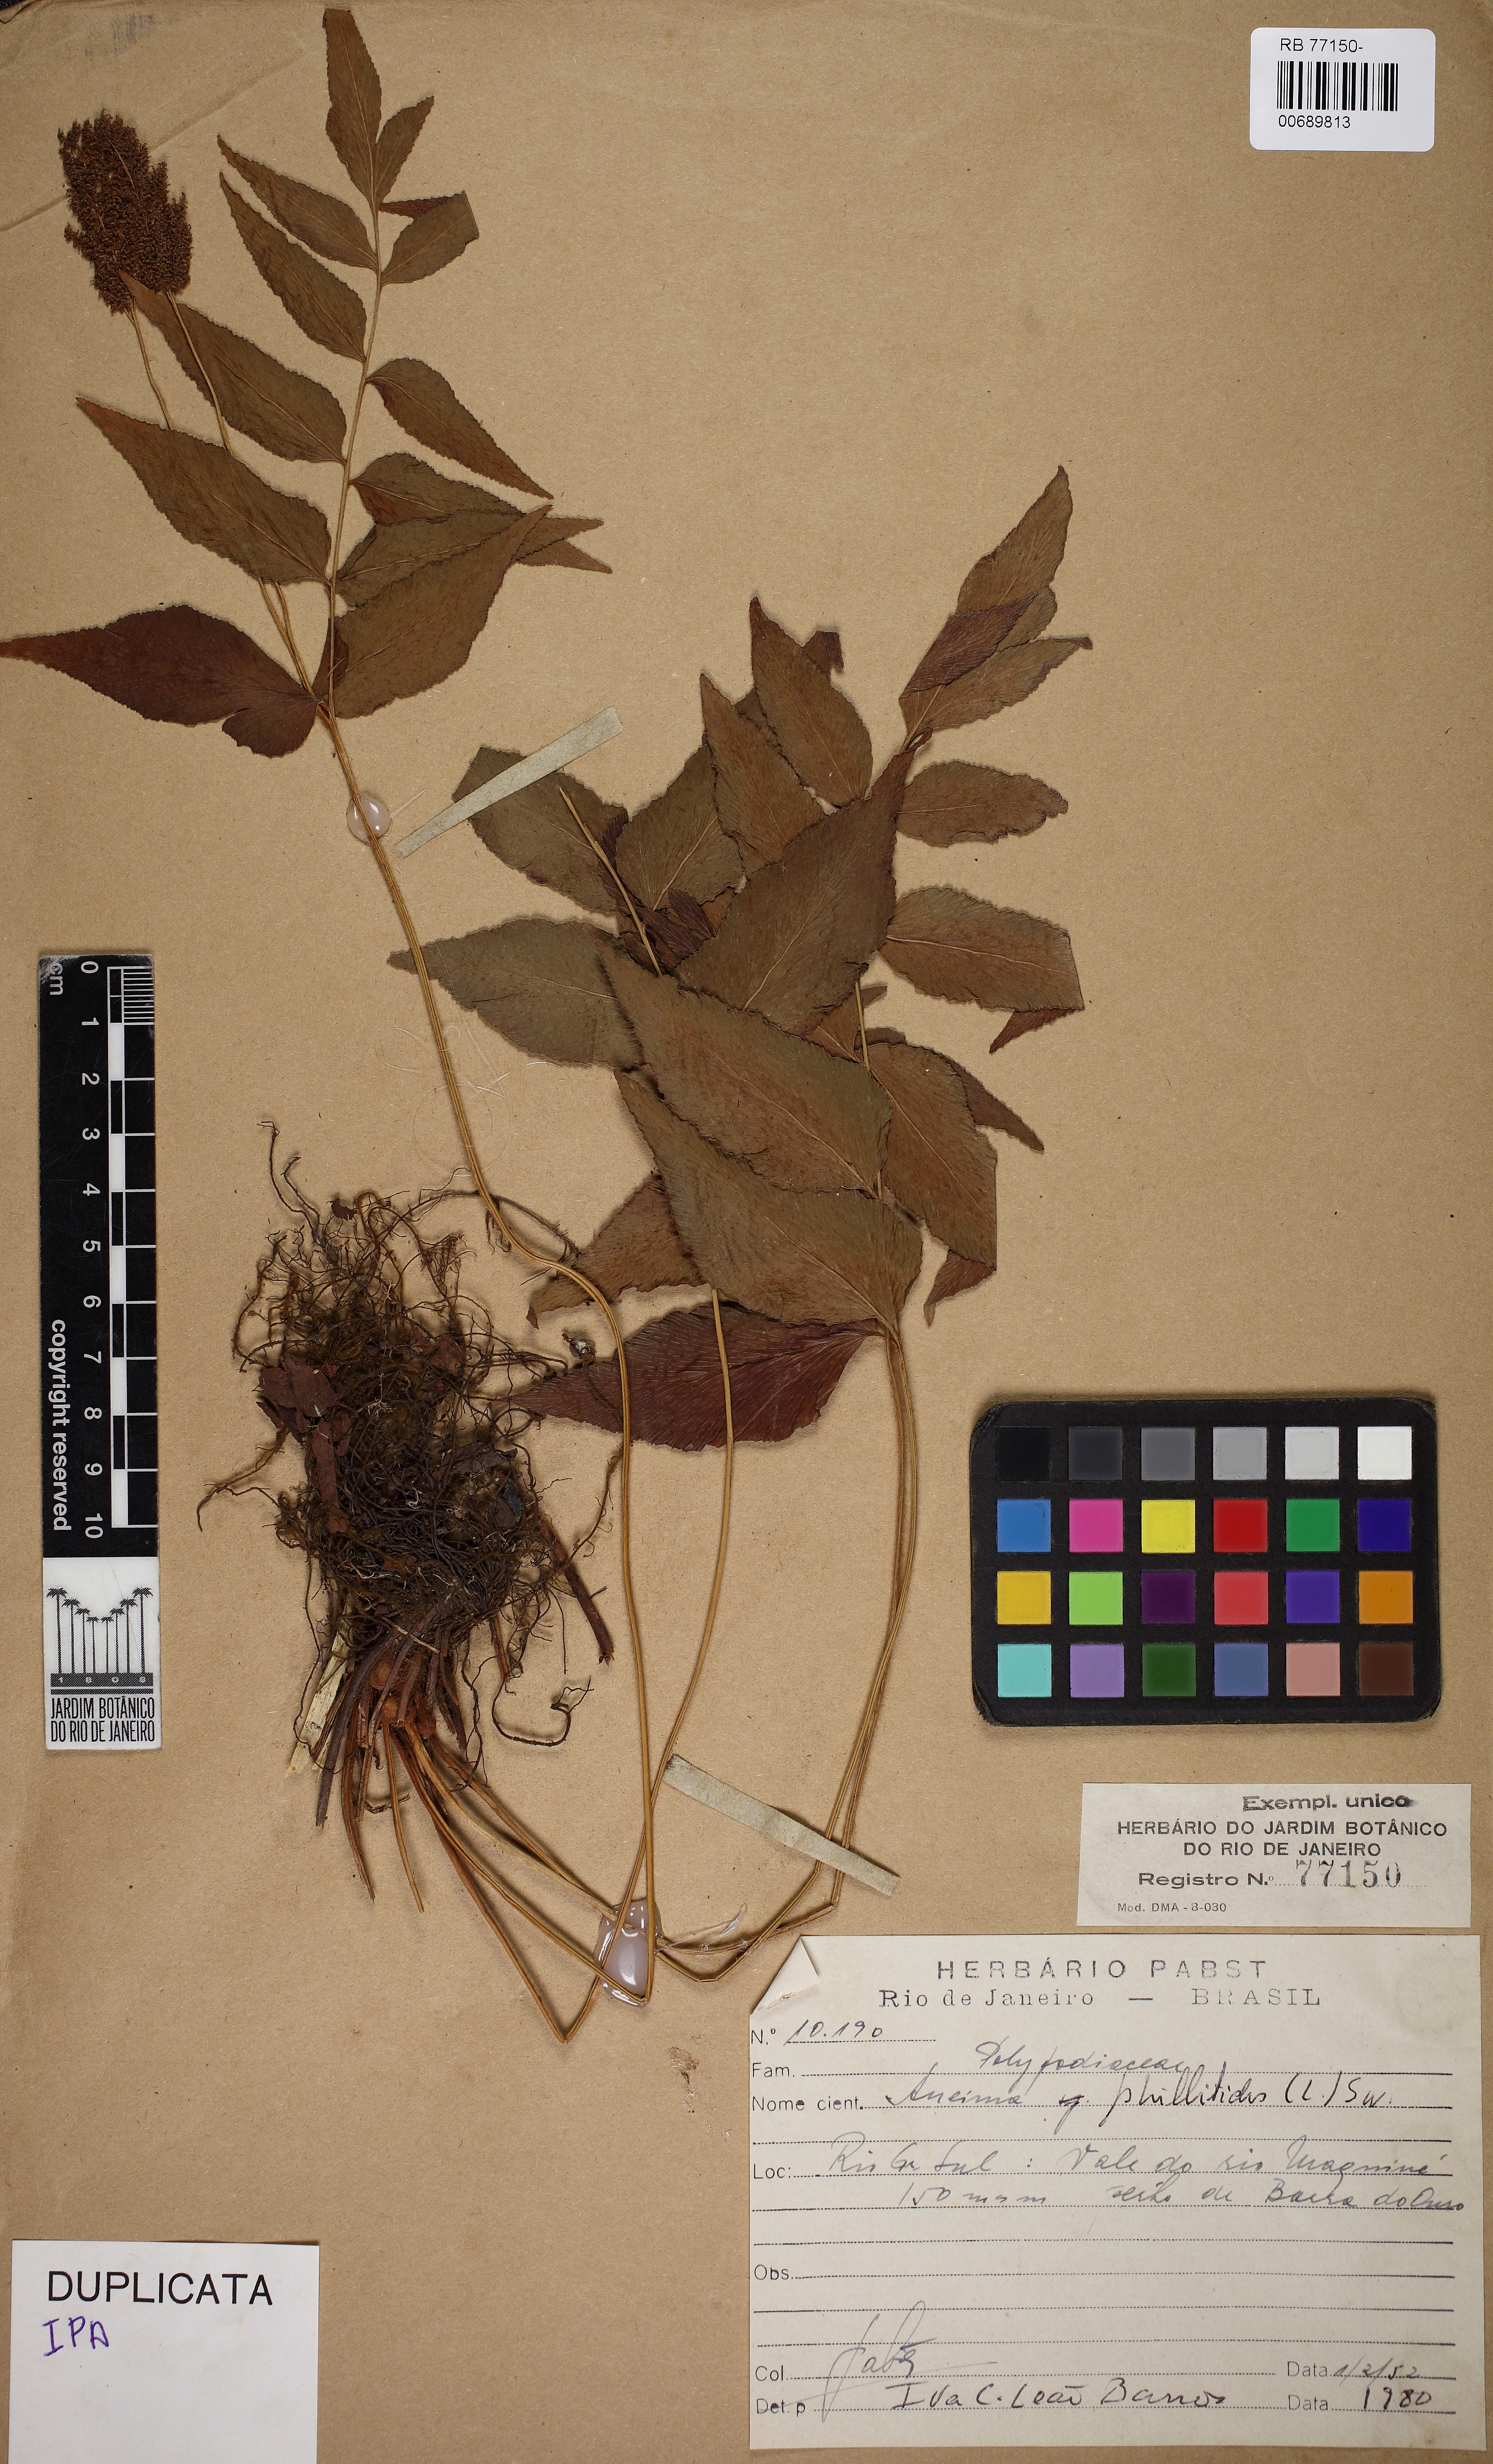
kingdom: Plantae
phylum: Tracheophyta
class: Polypodiopsida
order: Schizaeales
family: Anemiaceae
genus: Anemia
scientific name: Anemia phyllitidis
